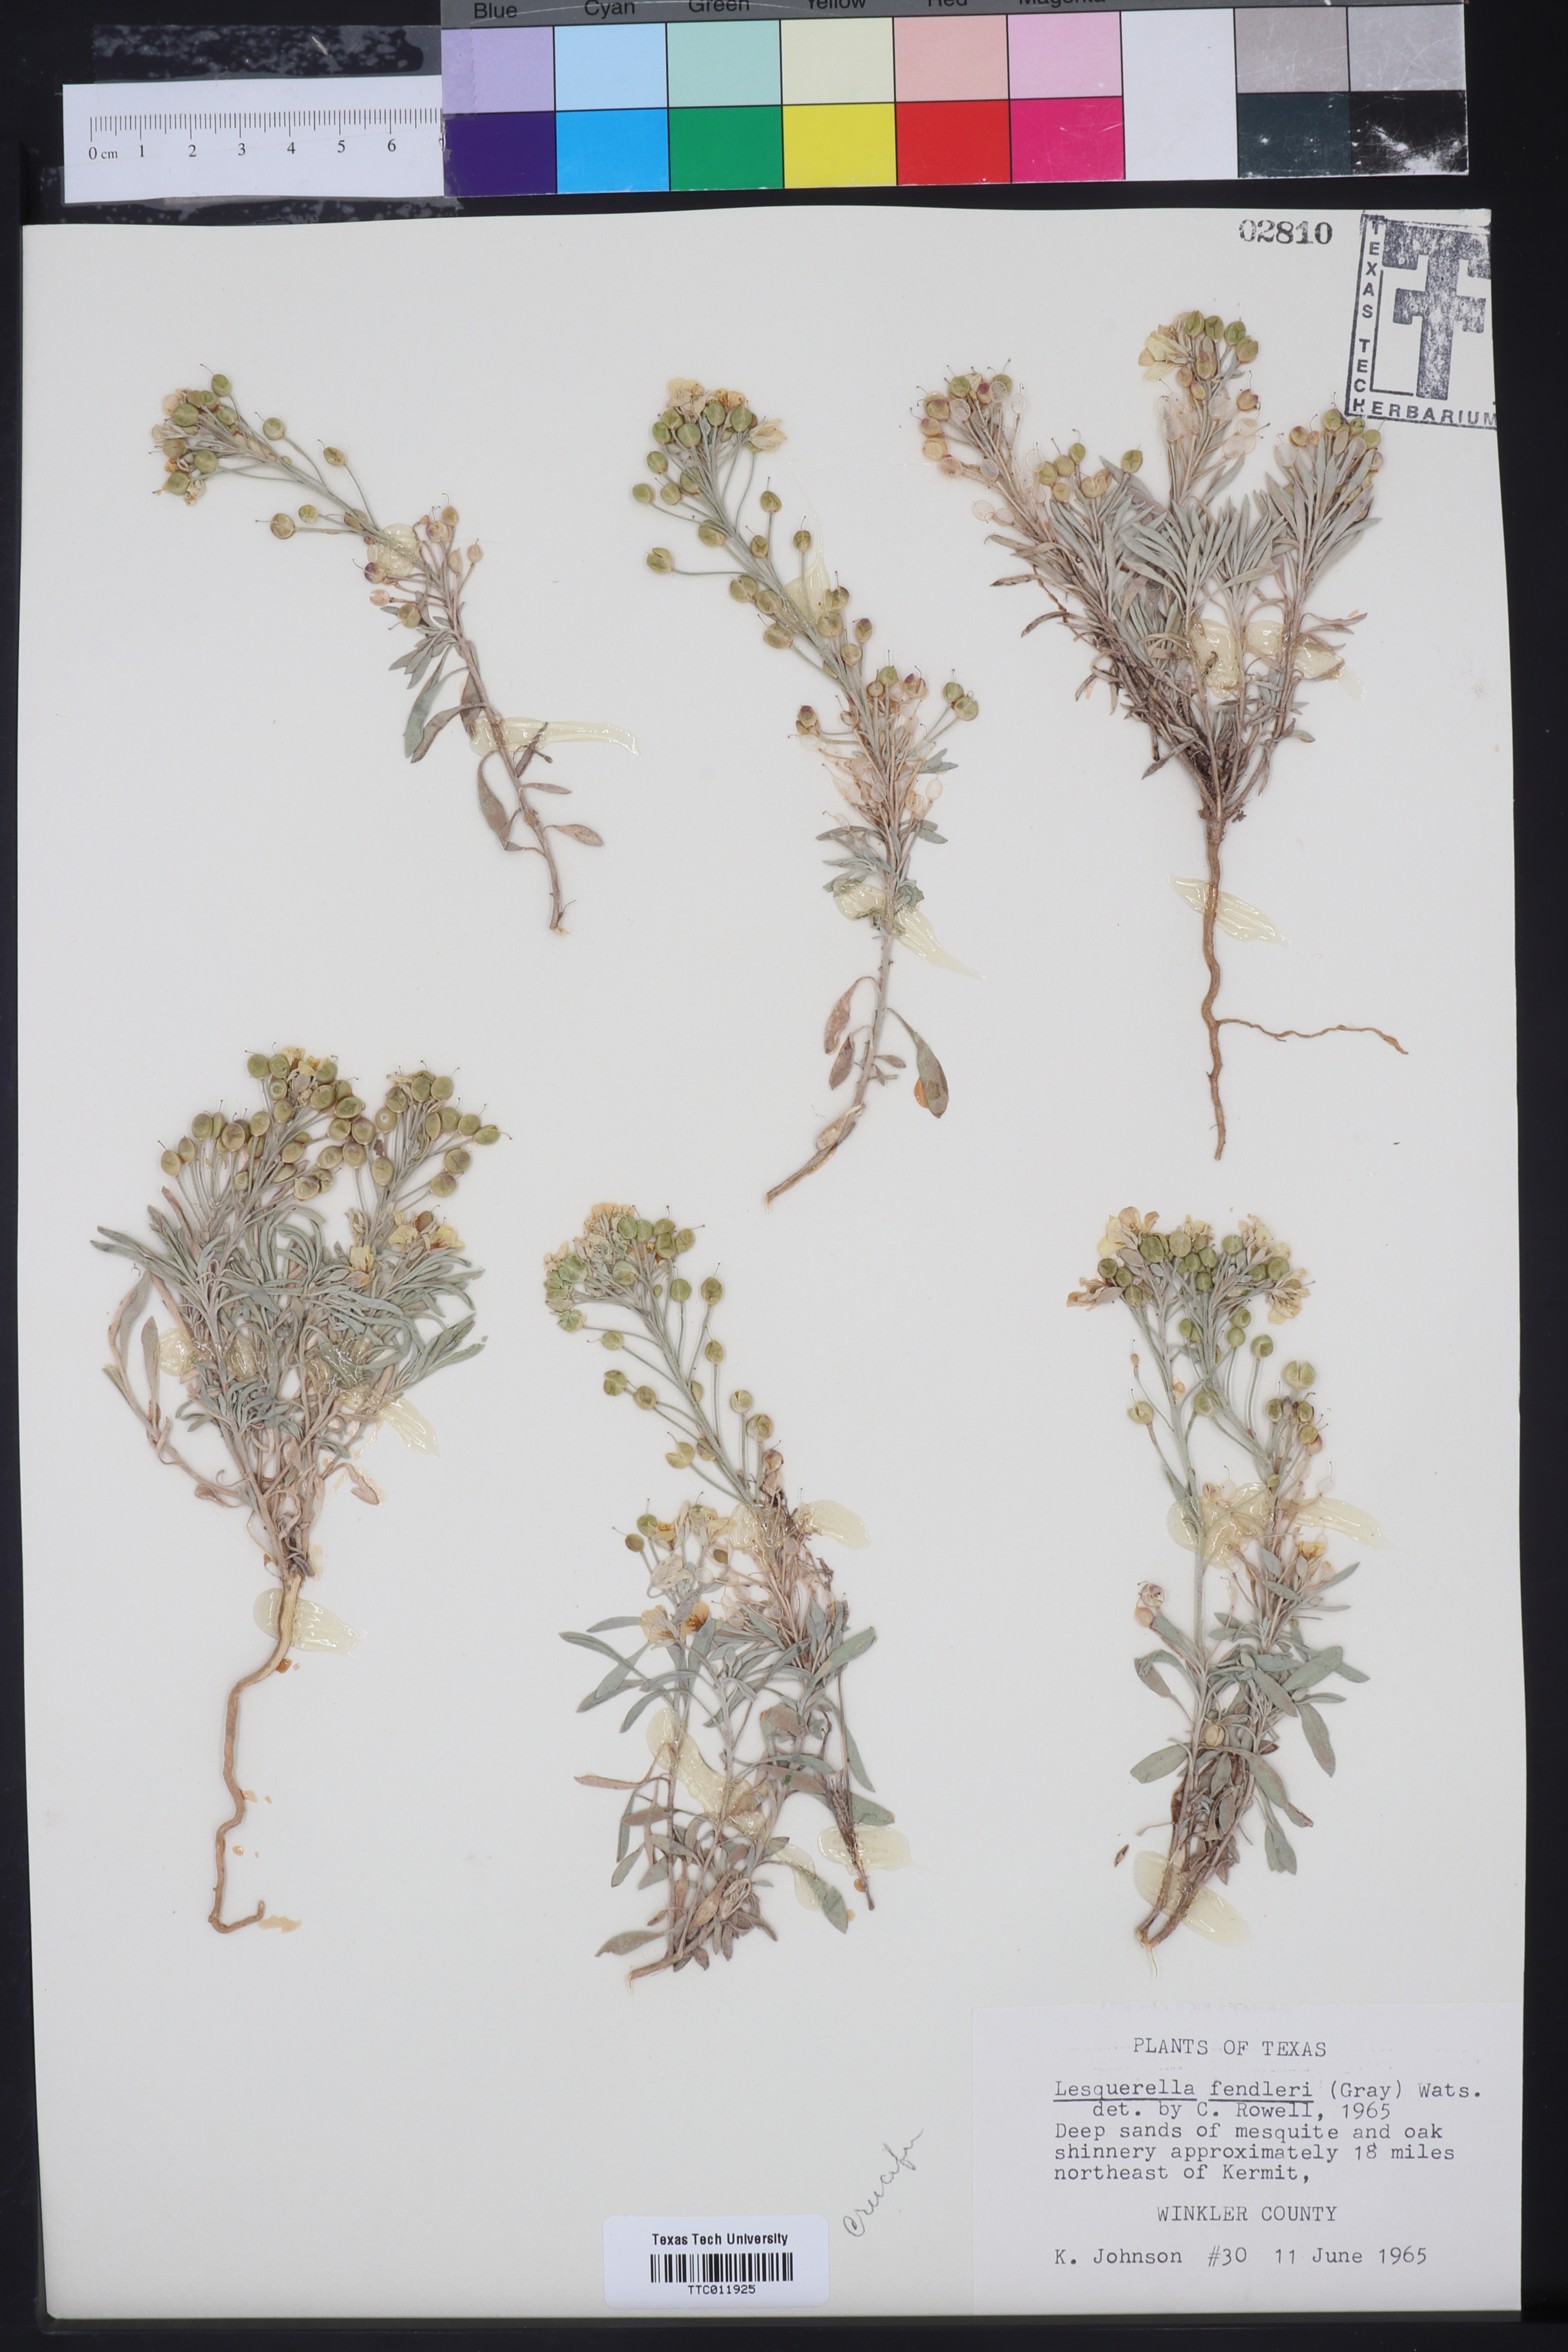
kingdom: Plantae
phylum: Tracheophyta
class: Magnoliopsida
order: Brassicales
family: Brassicaceae
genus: Physaria
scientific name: Physaria fendleri
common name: Fendler's bladderpod
